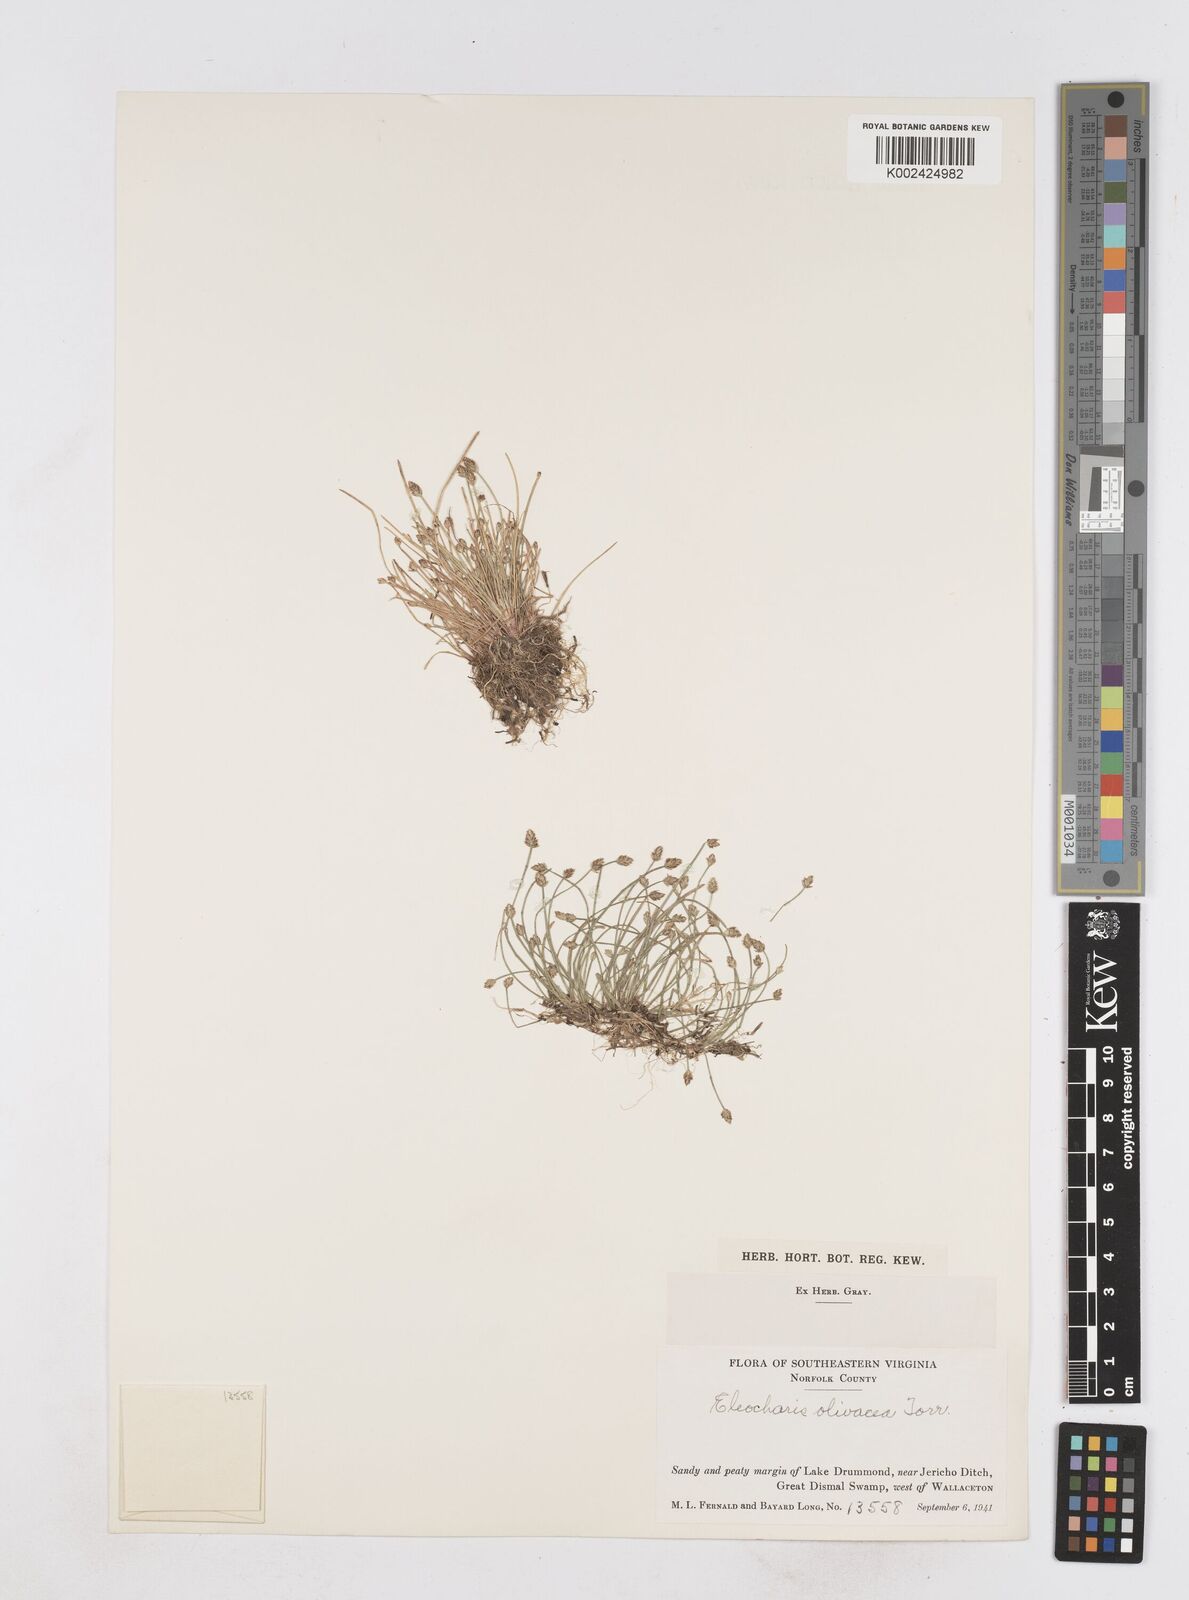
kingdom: Plantae
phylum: Tracheophyta
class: Liliopsida
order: Poales
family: Cyperaceae
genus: Eleocharis
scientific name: Eleocharis flavescens
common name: Yellow spikerush
